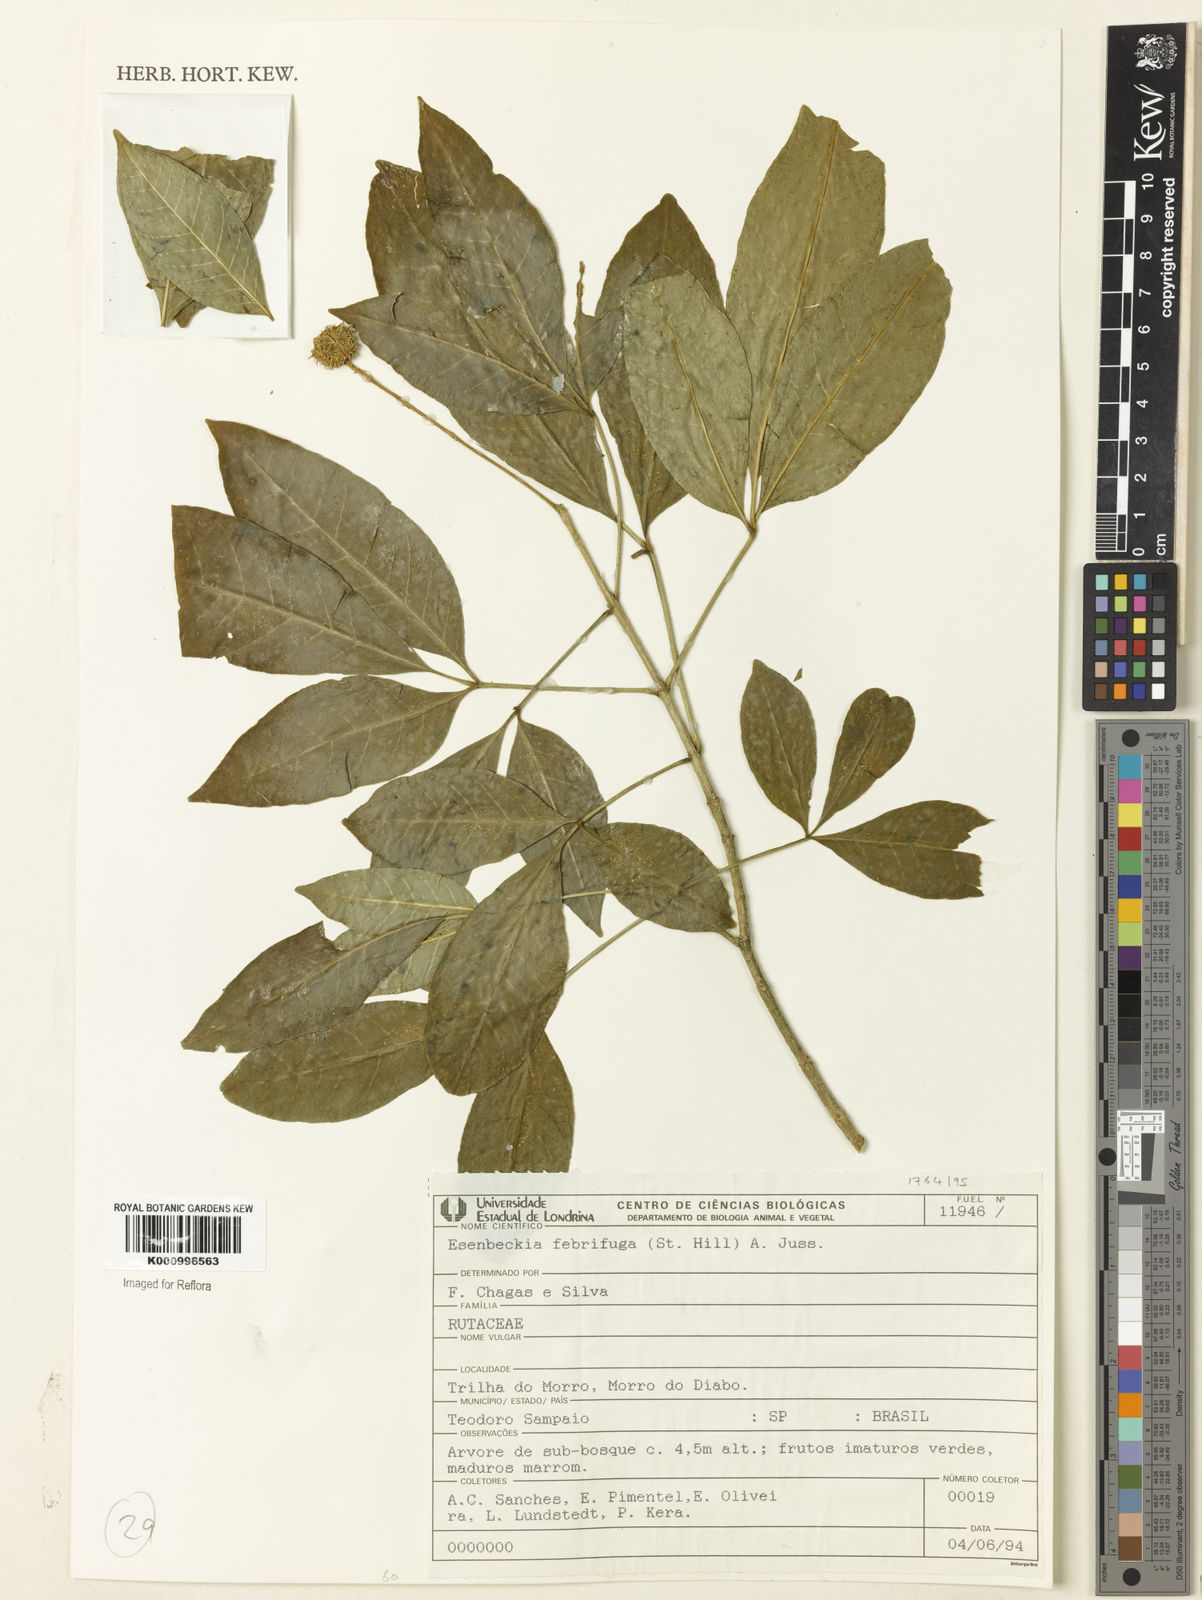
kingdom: Plantae
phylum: Tracheophyta
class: Magnoliopsida
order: Sapindales
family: Rutaceae
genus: Esenbeckia
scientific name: Esenbeckia febrifuga
